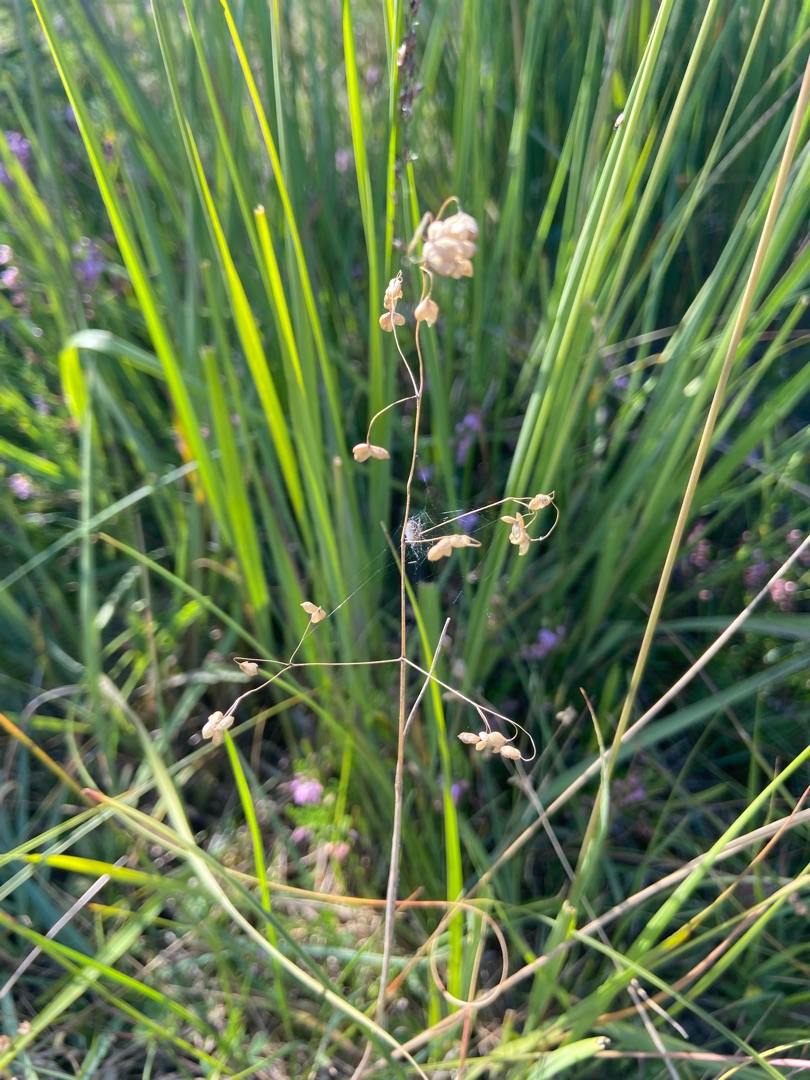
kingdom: Plantae
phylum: Tracheophyta
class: Liliopsida
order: Poales
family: Poaceae
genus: Briza
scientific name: Briza media
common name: Hjertegræs
